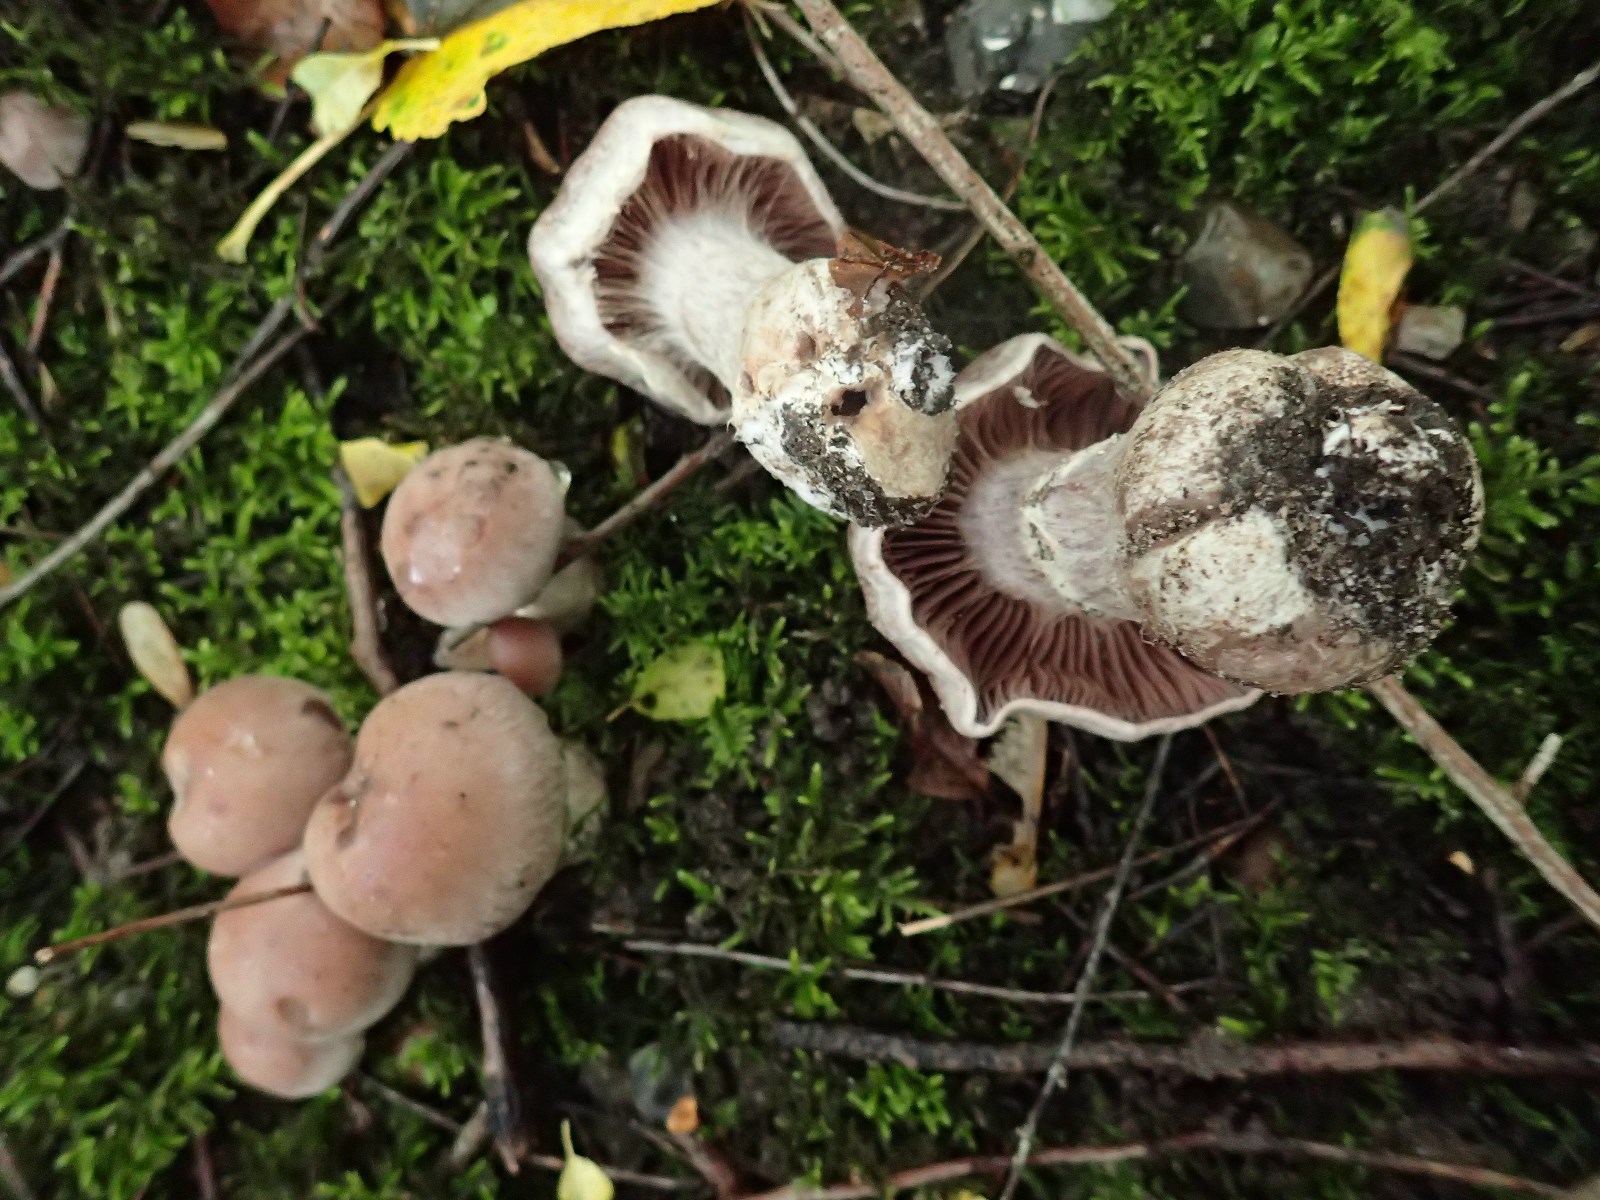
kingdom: Fungi
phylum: Basidiomycota
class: Agaricomycetes
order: Agaricales
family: Cortinariaceae
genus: Cortinarius
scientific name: Cortinarius torvus
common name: champignonagtig slørhat
